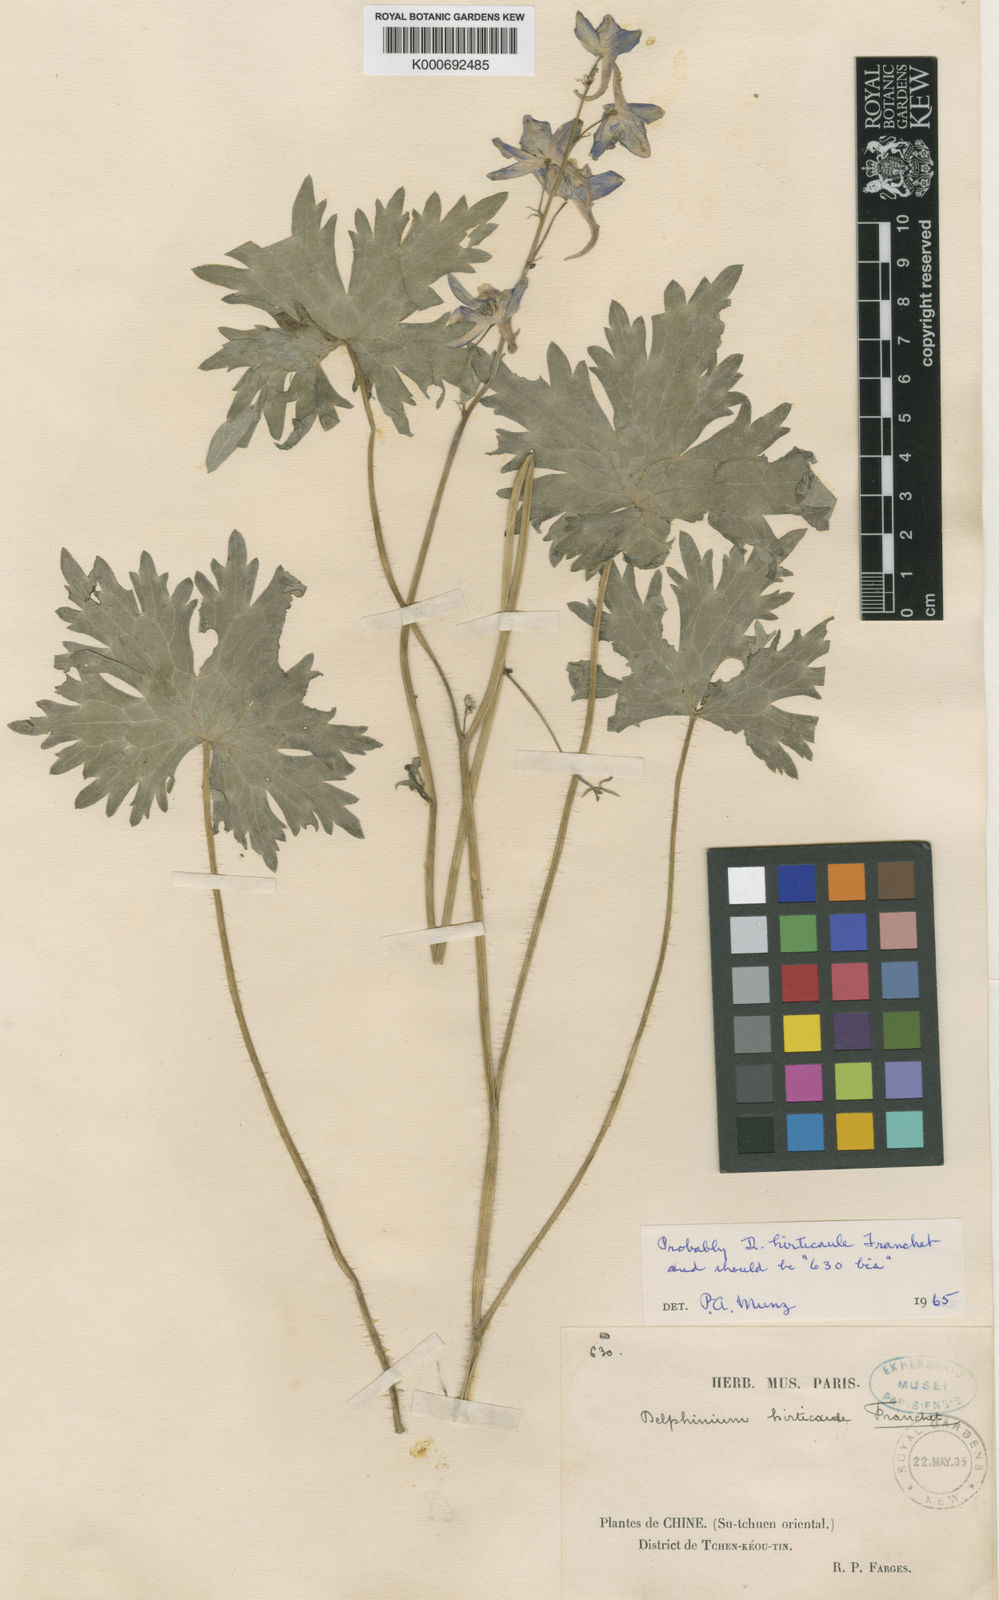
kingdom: Plantae
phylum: Tracheophyta
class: Magnoliopsida
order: Ranunculales
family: Ranunculaceae
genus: Delphinium
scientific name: Delphinium hirticaule
